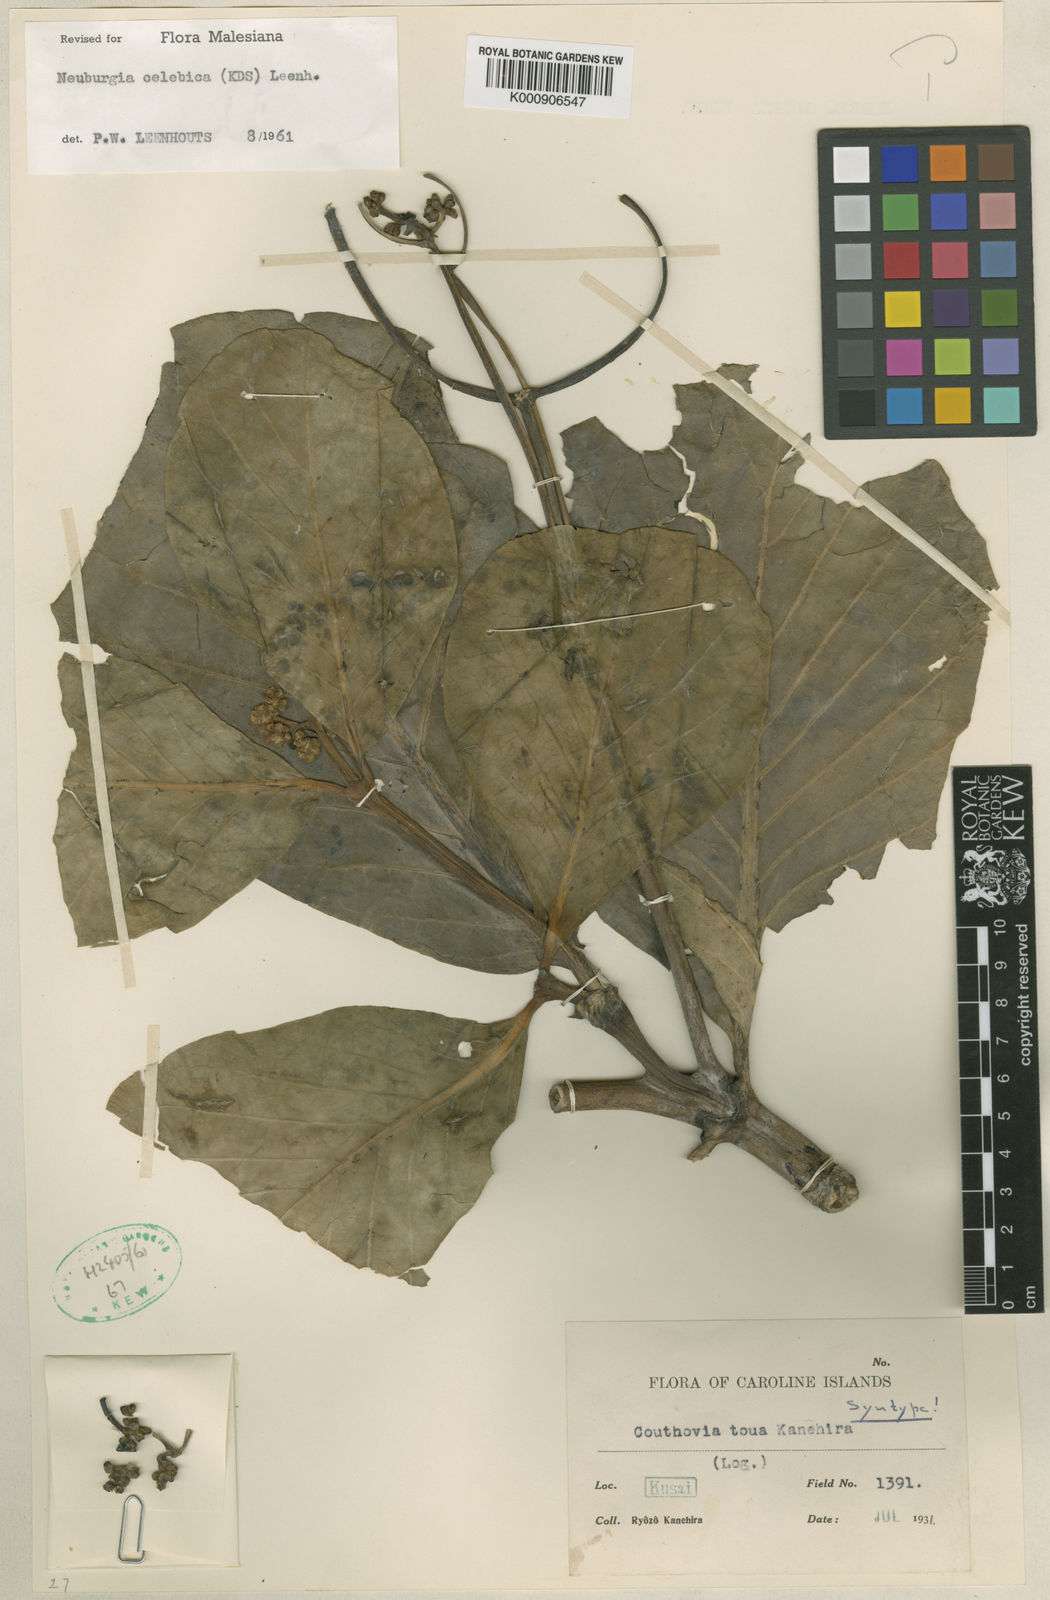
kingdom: Plantae
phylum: Tracheophyta
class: Magnoliopsida
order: Gentianales
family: Loganiaceae
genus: Neuburgia
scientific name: Neuburgia celebica
